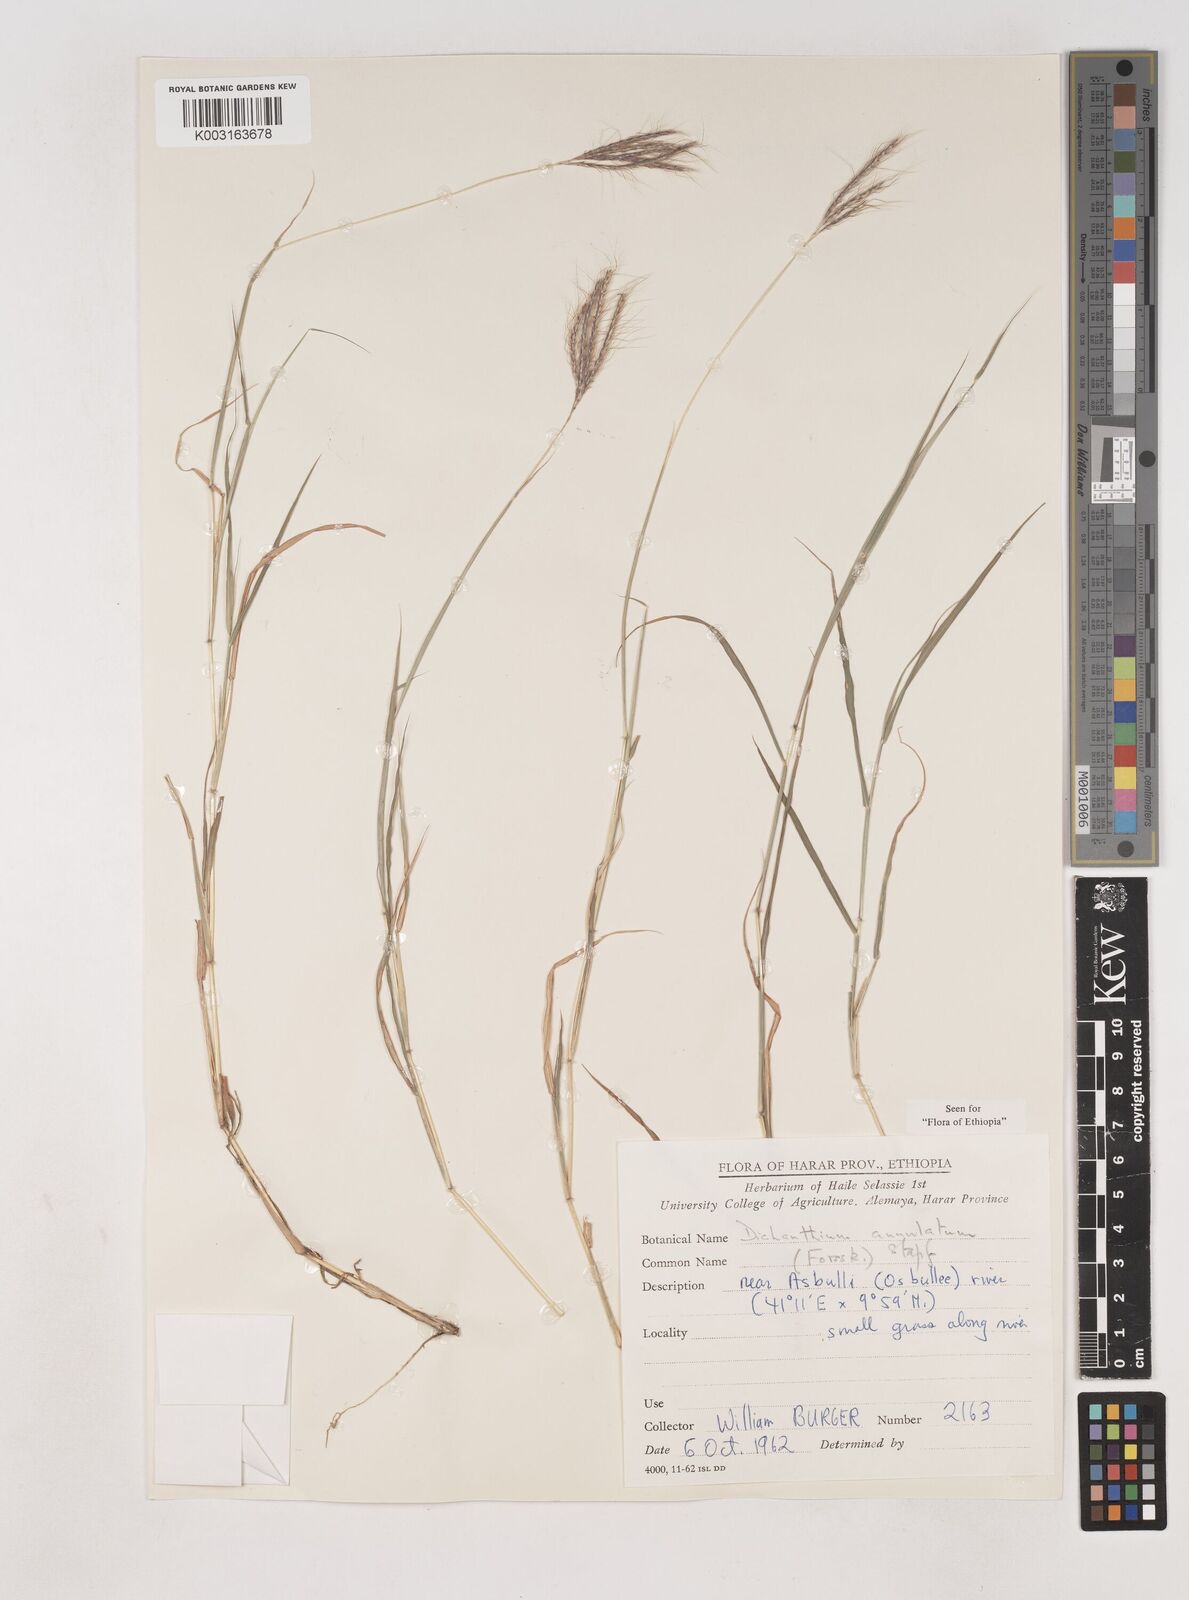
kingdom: Plantae
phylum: Tracheophyta
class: Liliopsida
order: Poales
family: Poaceae
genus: Dichanthium
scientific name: Dichanthium annulatum
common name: Kleberg's bluestem
